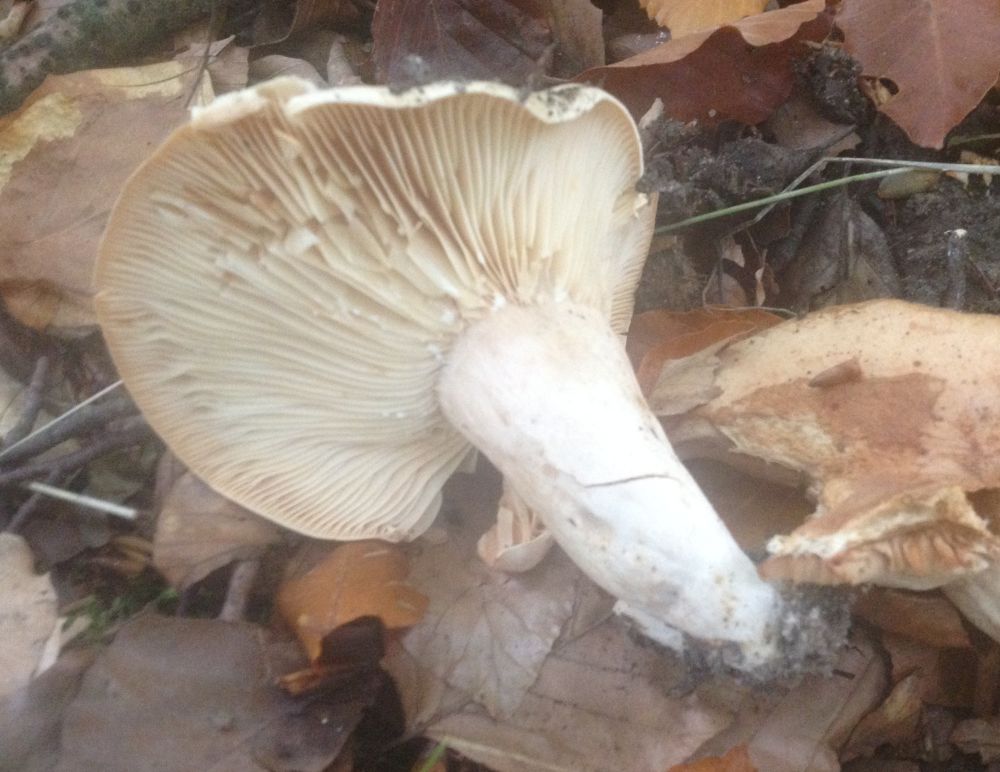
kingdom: Fungi
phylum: Basidiomycota
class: Agaricomycetes
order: Russulales
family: Russulaceae
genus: Lactarius
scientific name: Lactarius pallidus
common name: bleg mælkehat
